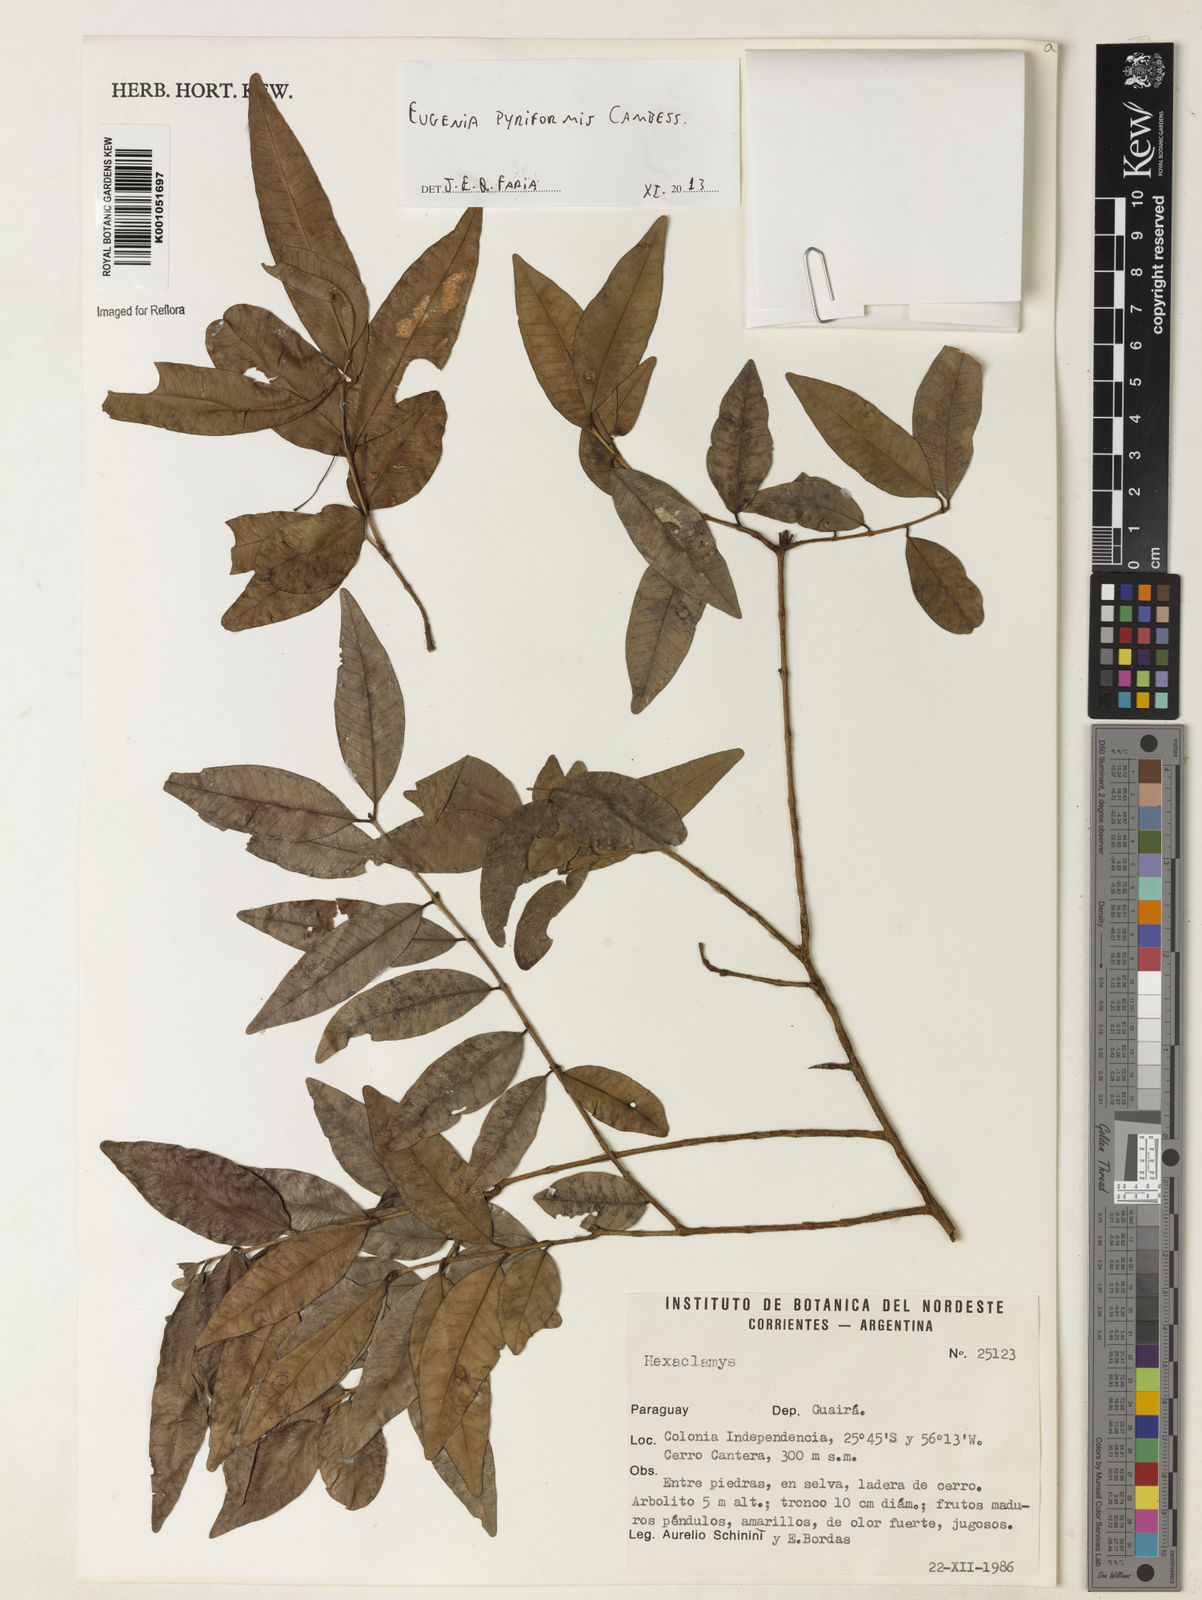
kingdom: Plantae
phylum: Tracheophyta
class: Magnoliopsida
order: Myrtales
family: Myrtaceae
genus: Eugenia
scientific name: Eugenia pyriformis
